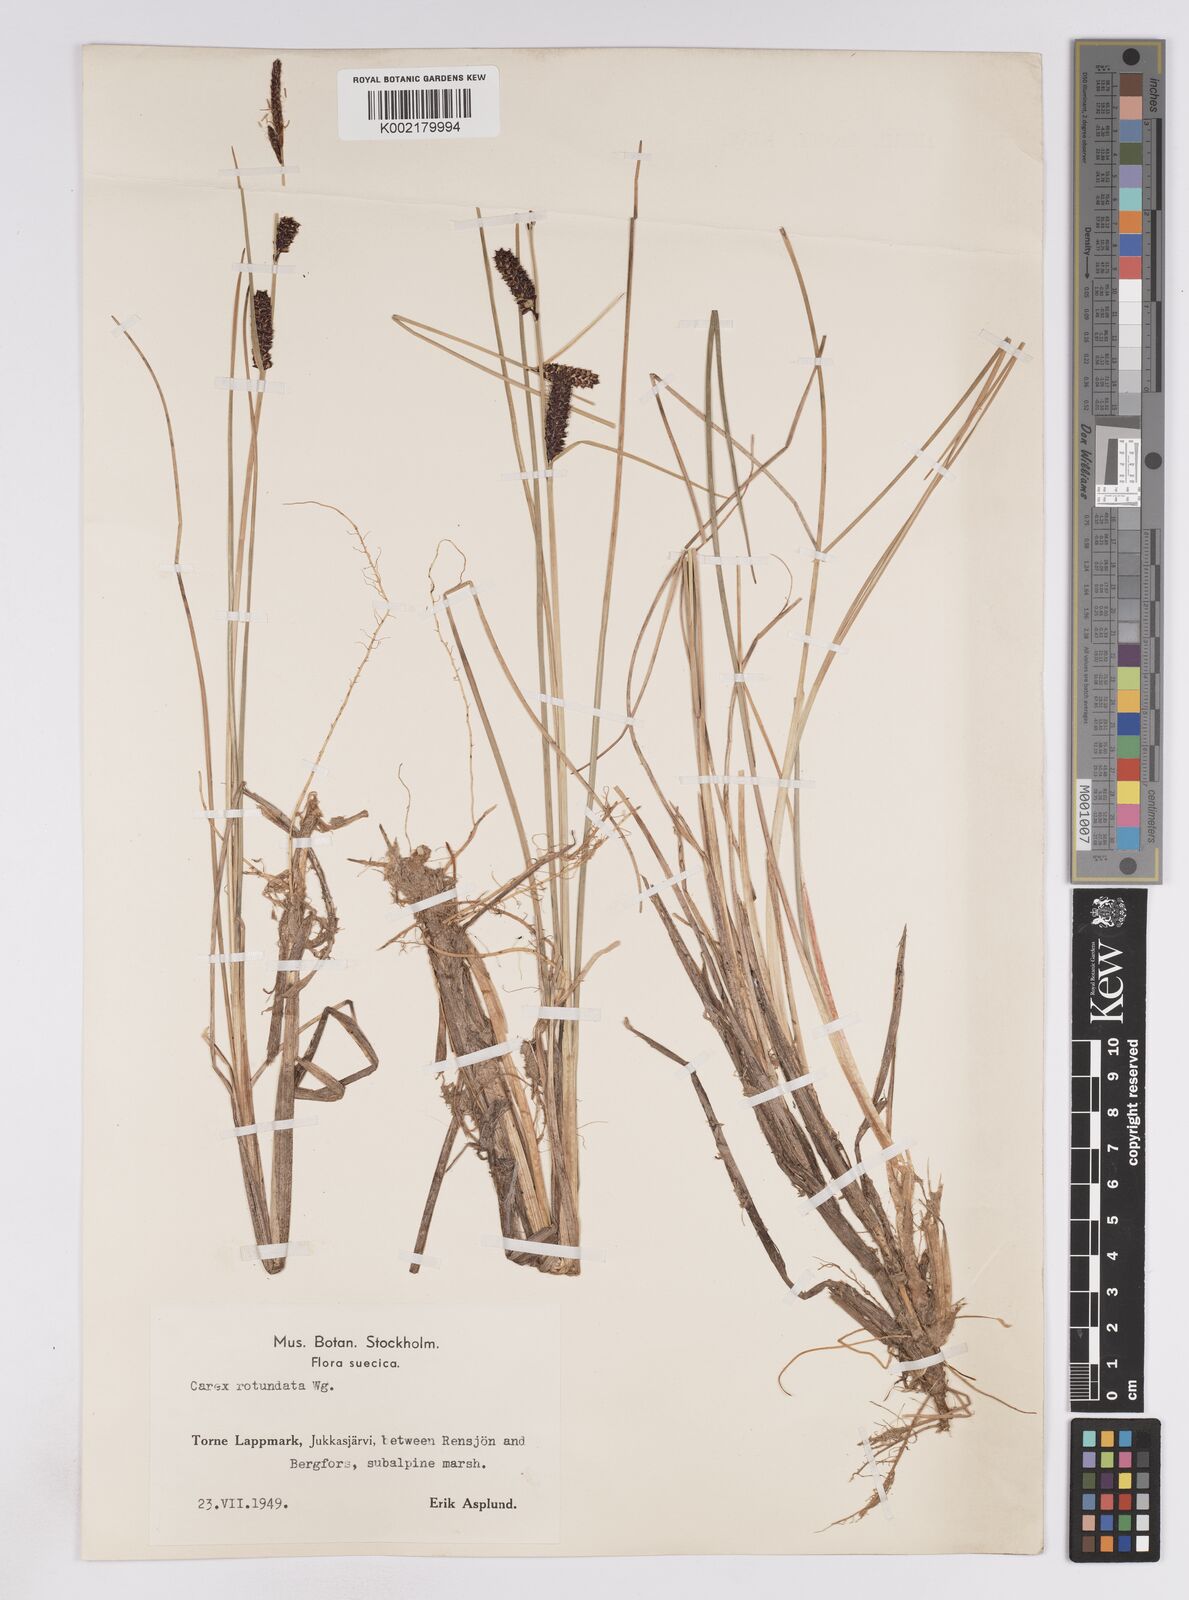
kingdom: Plantae
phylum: Tracheophyta
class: Liliopsida
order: Poales
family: Cyperaceae
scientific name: Cyperaceae
